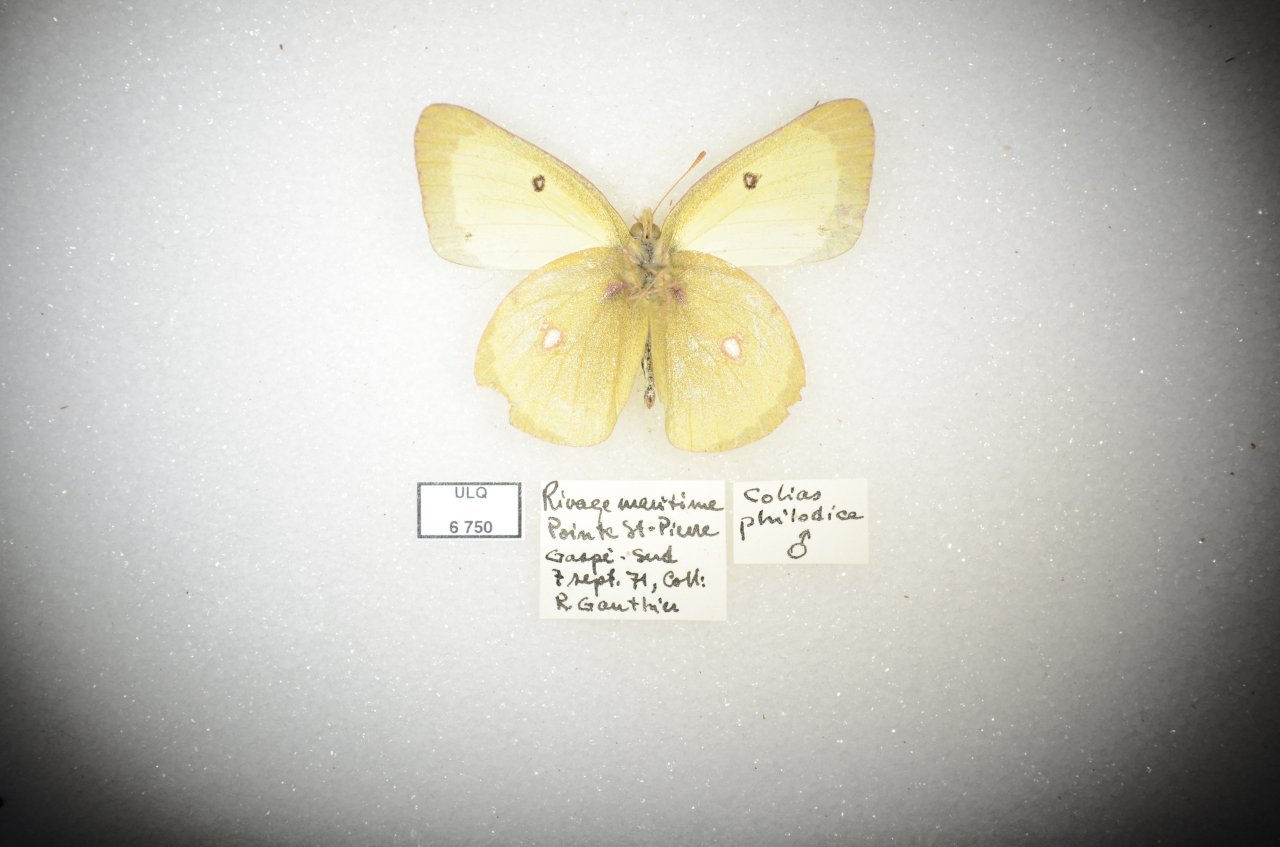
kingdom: Animalia
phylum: Arthropoda
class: Insecta
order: Lepidoptera
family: Pieridae
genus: Colias
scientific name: Colias philodice
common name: Clouded Sulphur
